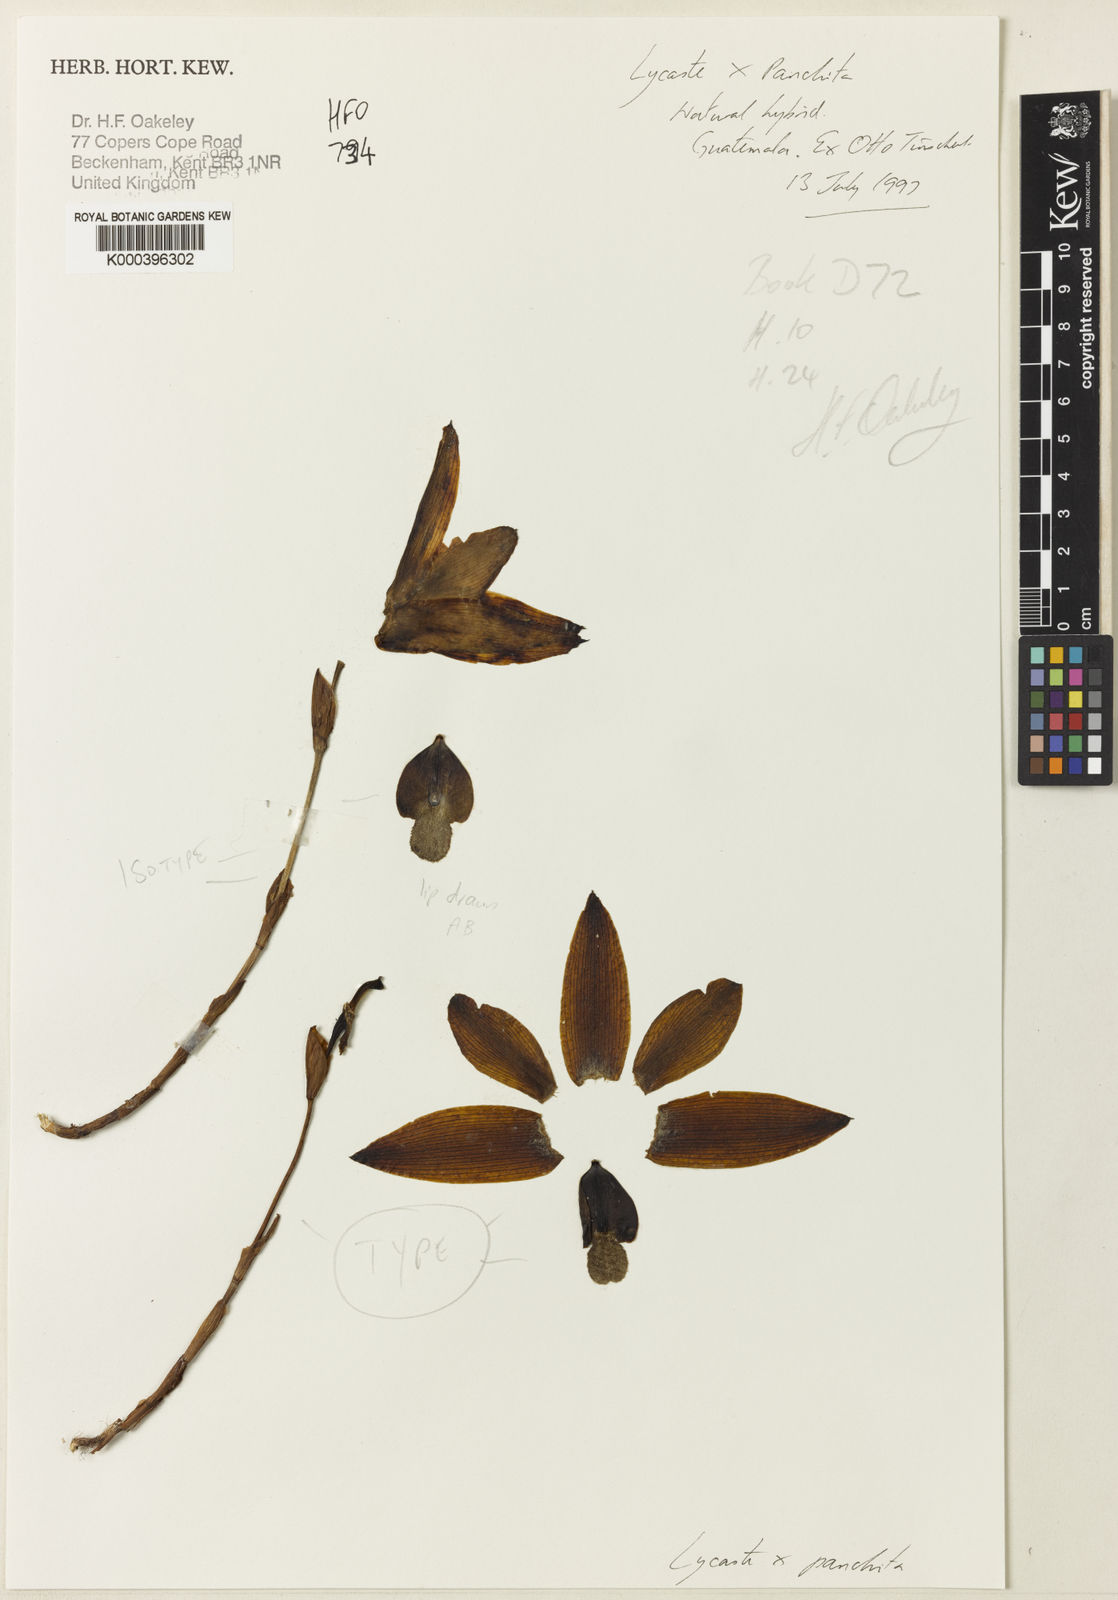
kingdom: Plantae
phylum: Tracheophyta
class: Liliopsida
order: Asparagales
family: Orchidaceae
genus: Lycaste
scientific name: Lycaste panchita
